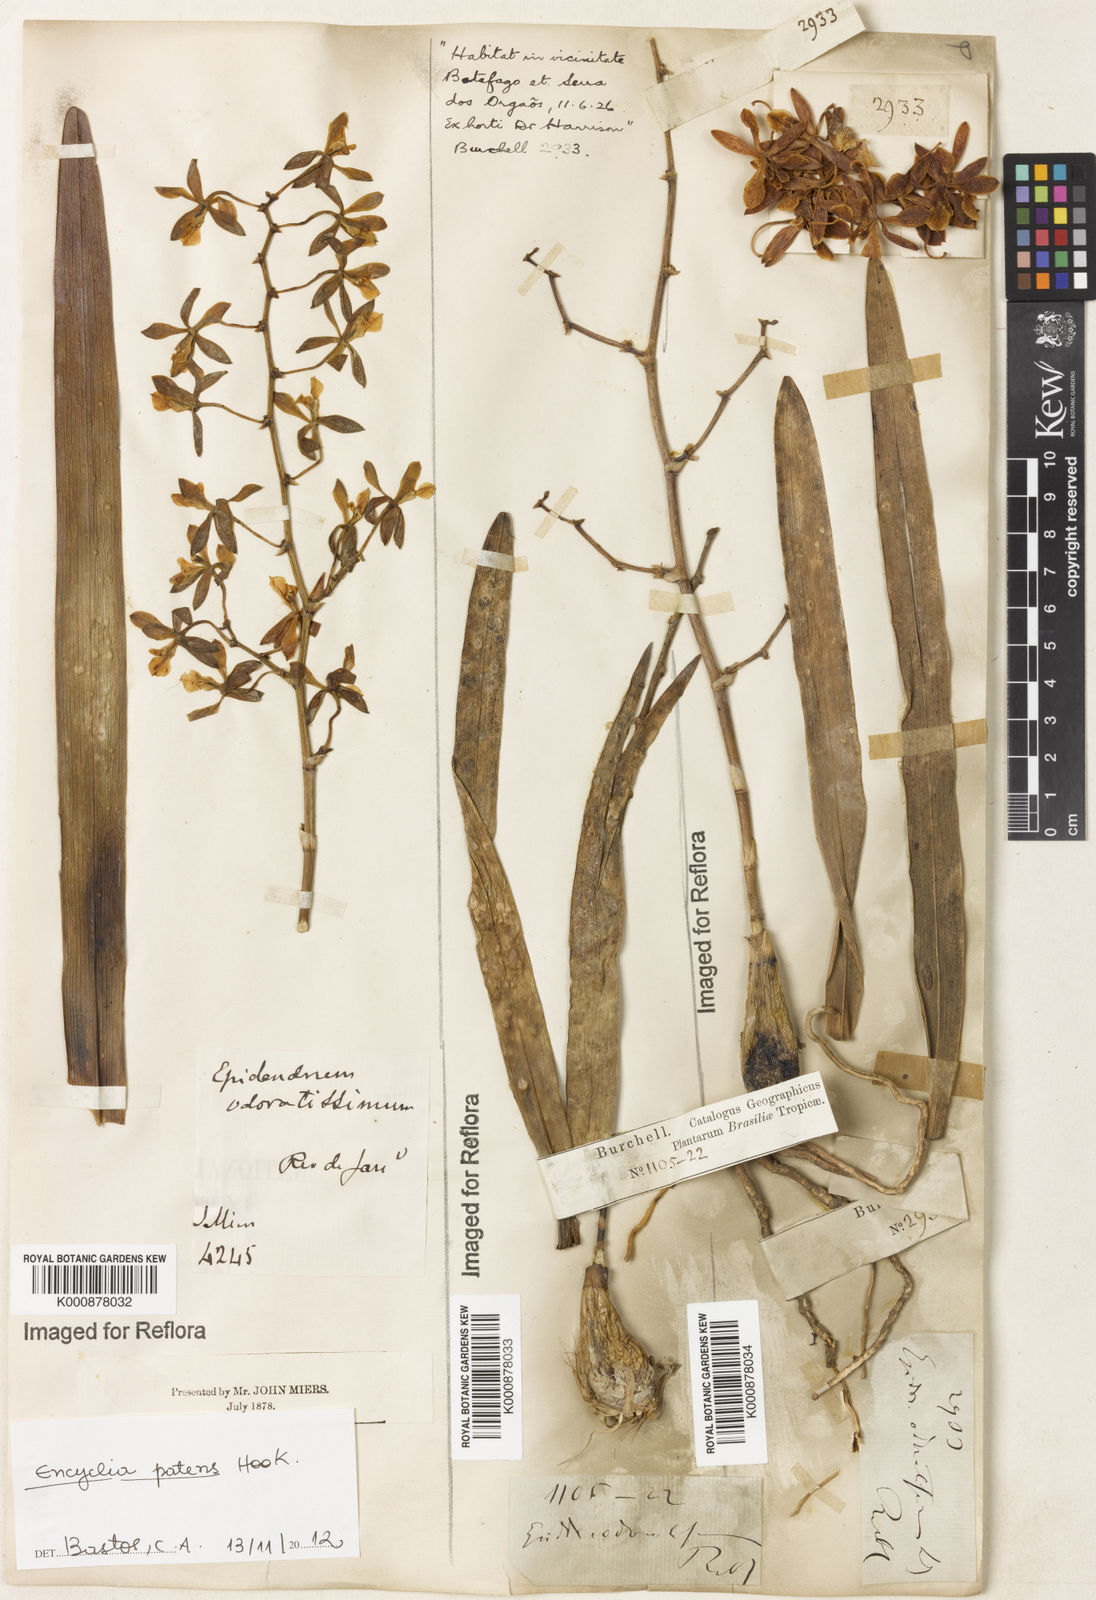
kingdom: Plantae
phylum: Tracheophyta
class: Liliopsida
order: Asparagales
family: Orchidaceae
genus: Encyclia
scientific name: Encyclia patens
